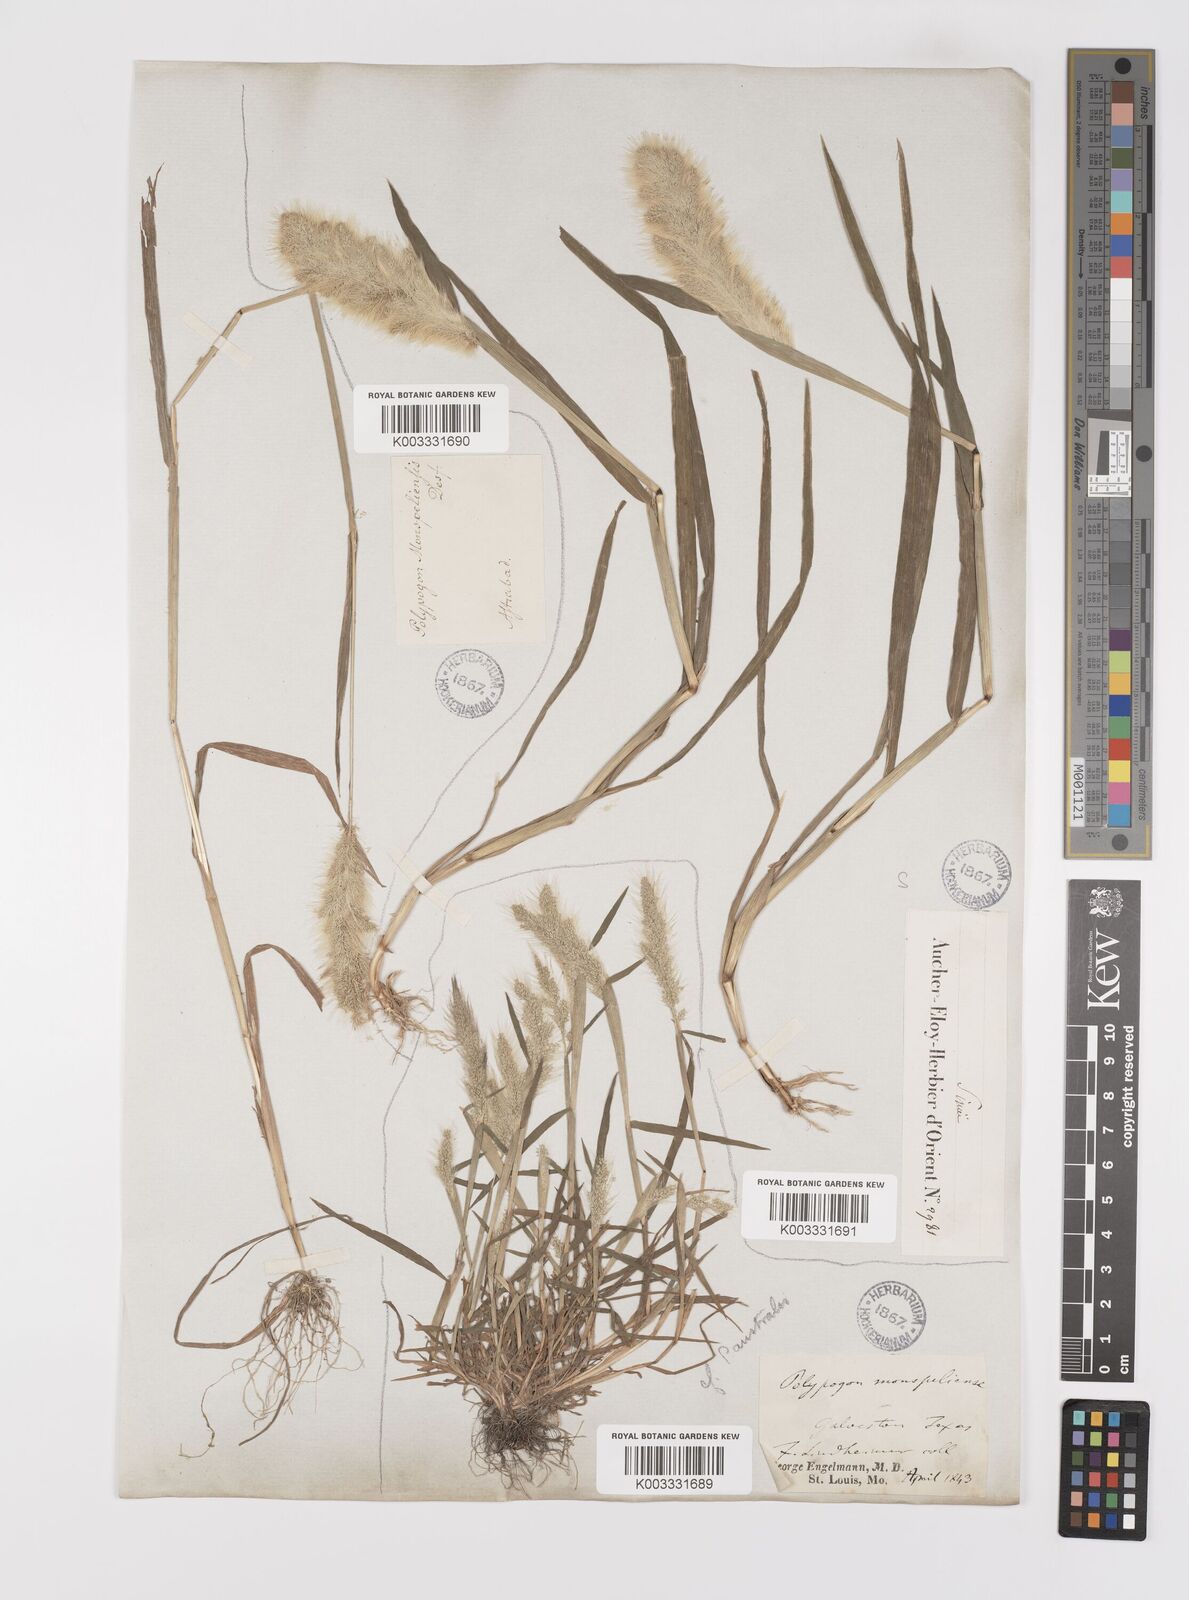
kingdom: Plantae
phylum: Tracheophyta
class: Liliopsida
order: Poales
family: Poaceae
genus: Polypogon
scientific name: Polypogon monspeliensis
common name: Annual rabbitsfoot grass
